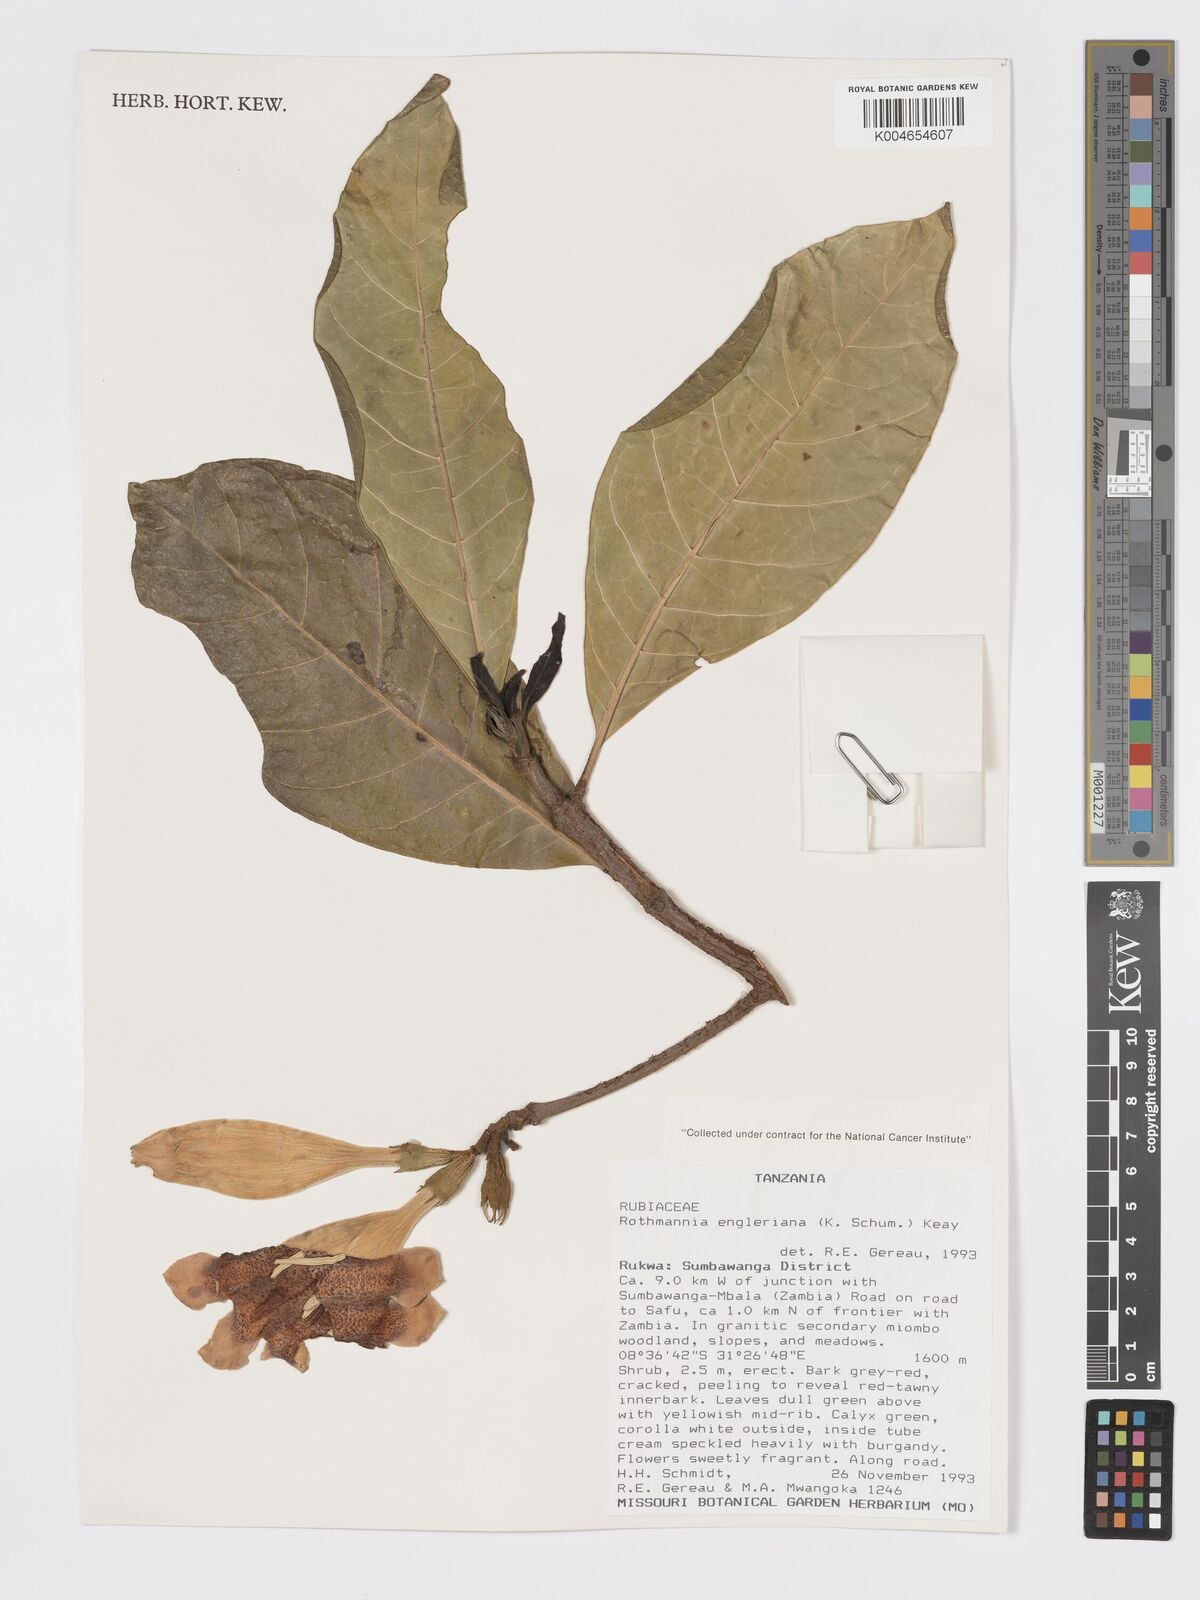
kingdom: Plantae
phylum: Tracheophyta
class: Magnoliopsida
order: Gentianales
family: Rubiaceae
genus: Rothmannia
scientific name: Rothmannia engleriana
